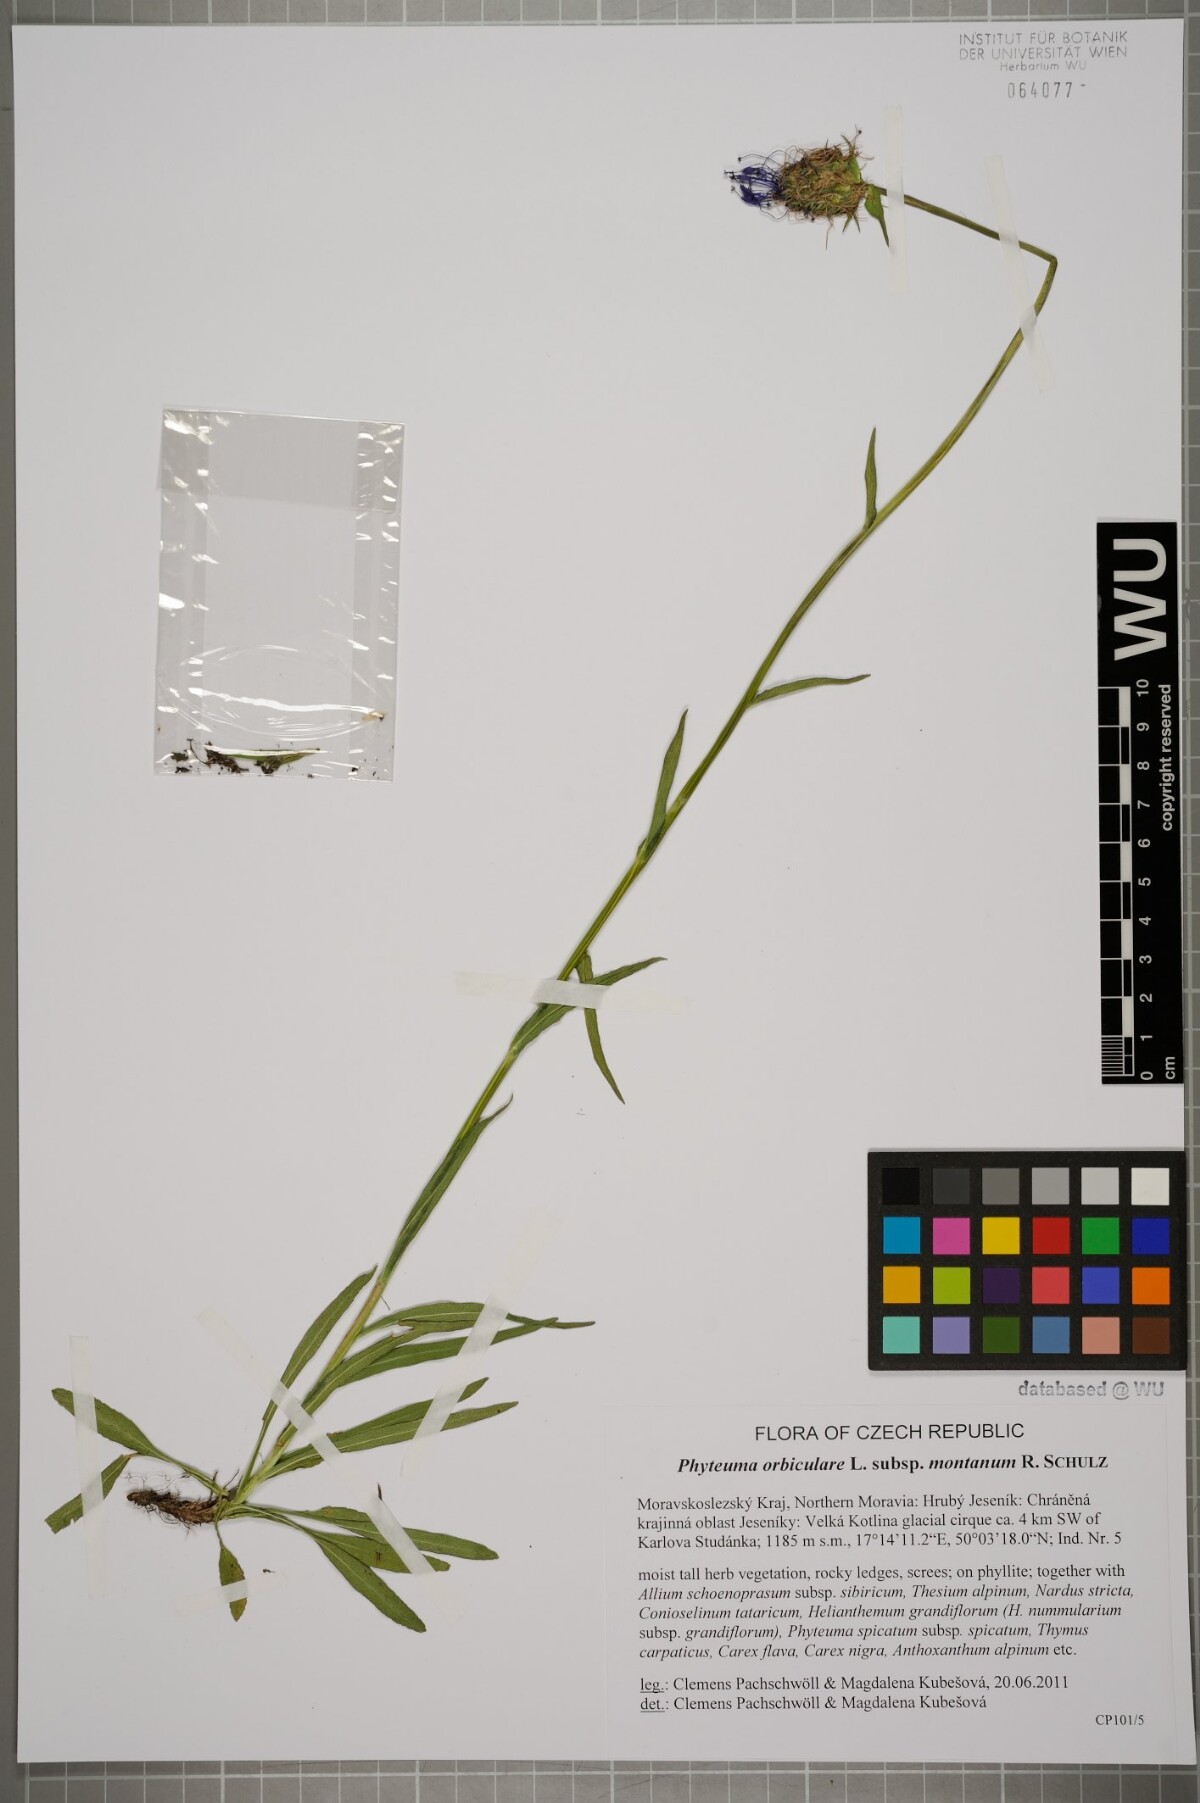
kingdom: Plantae
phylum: Tracheophyta
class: Magnoliopsida
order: Asterales
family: Campanulaceae
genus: Phyteuma
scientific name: Phyteuma orbiculare
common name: Round-headed rampion
